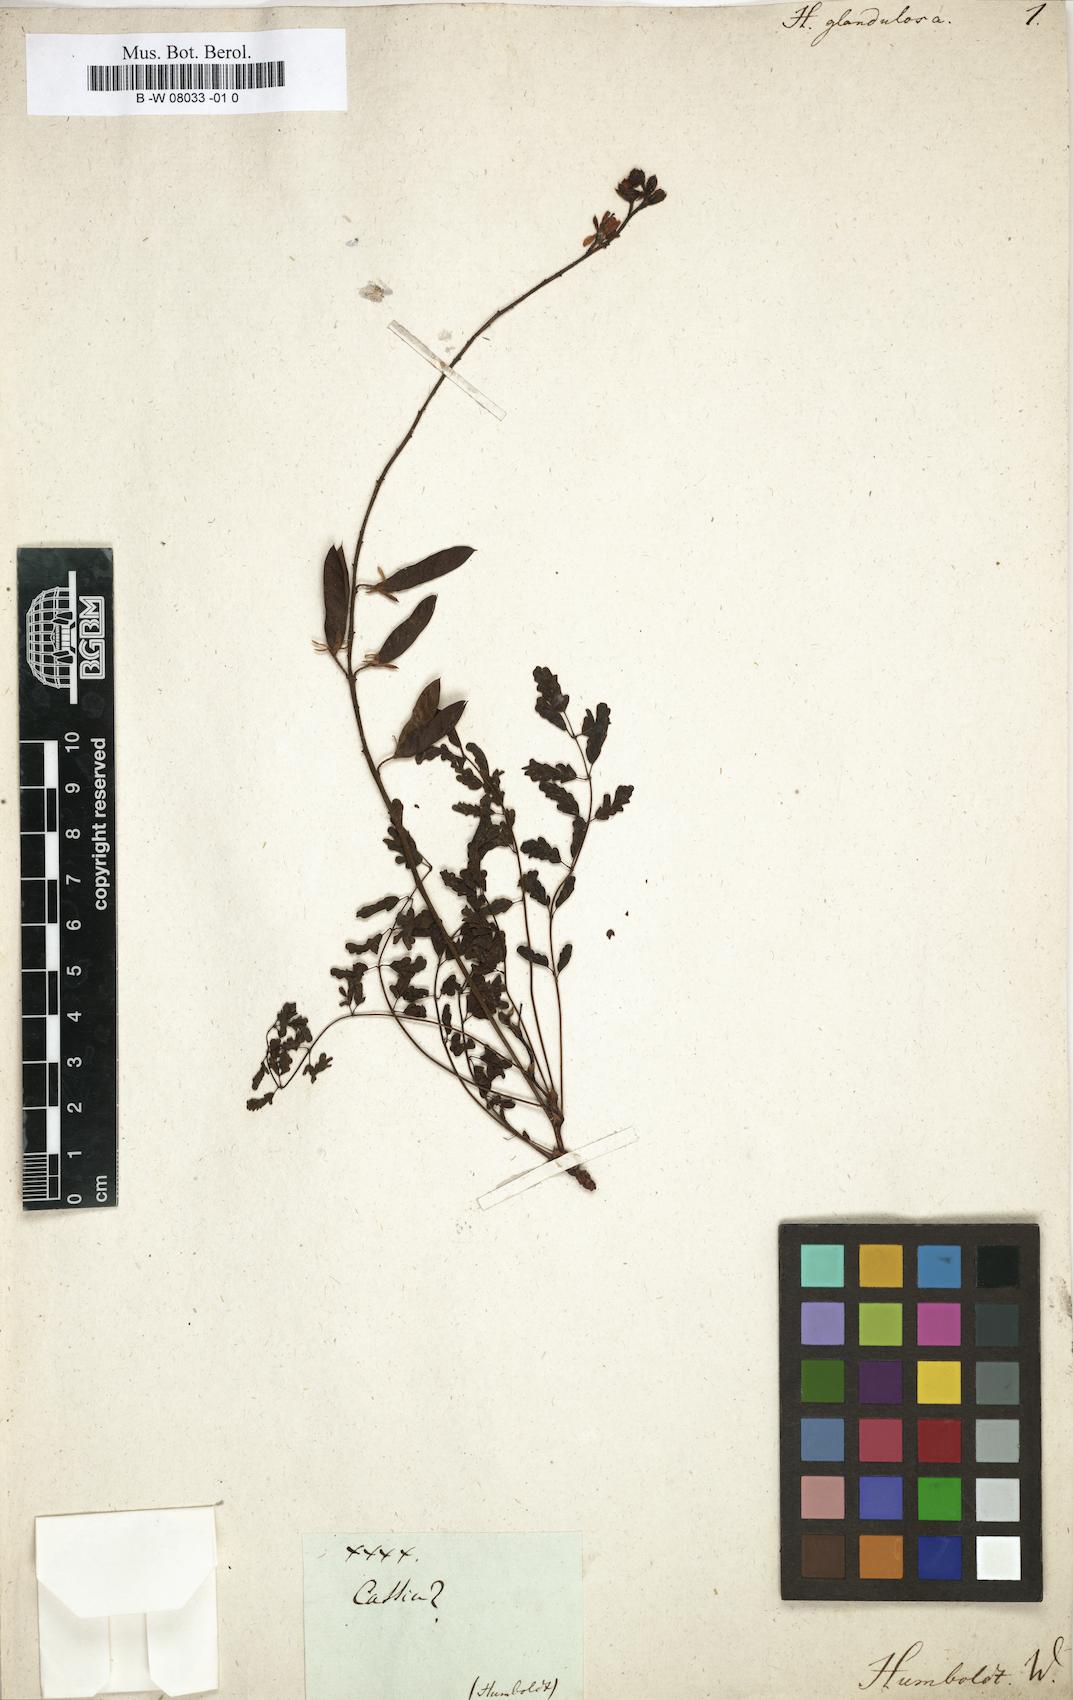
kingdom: Plantae
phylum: Tracheophyta
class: Magnoliopsida
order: Fabales
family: Fabaceae
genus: Hoffmannseggia
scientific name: Hoffmannseggia glandulosa
